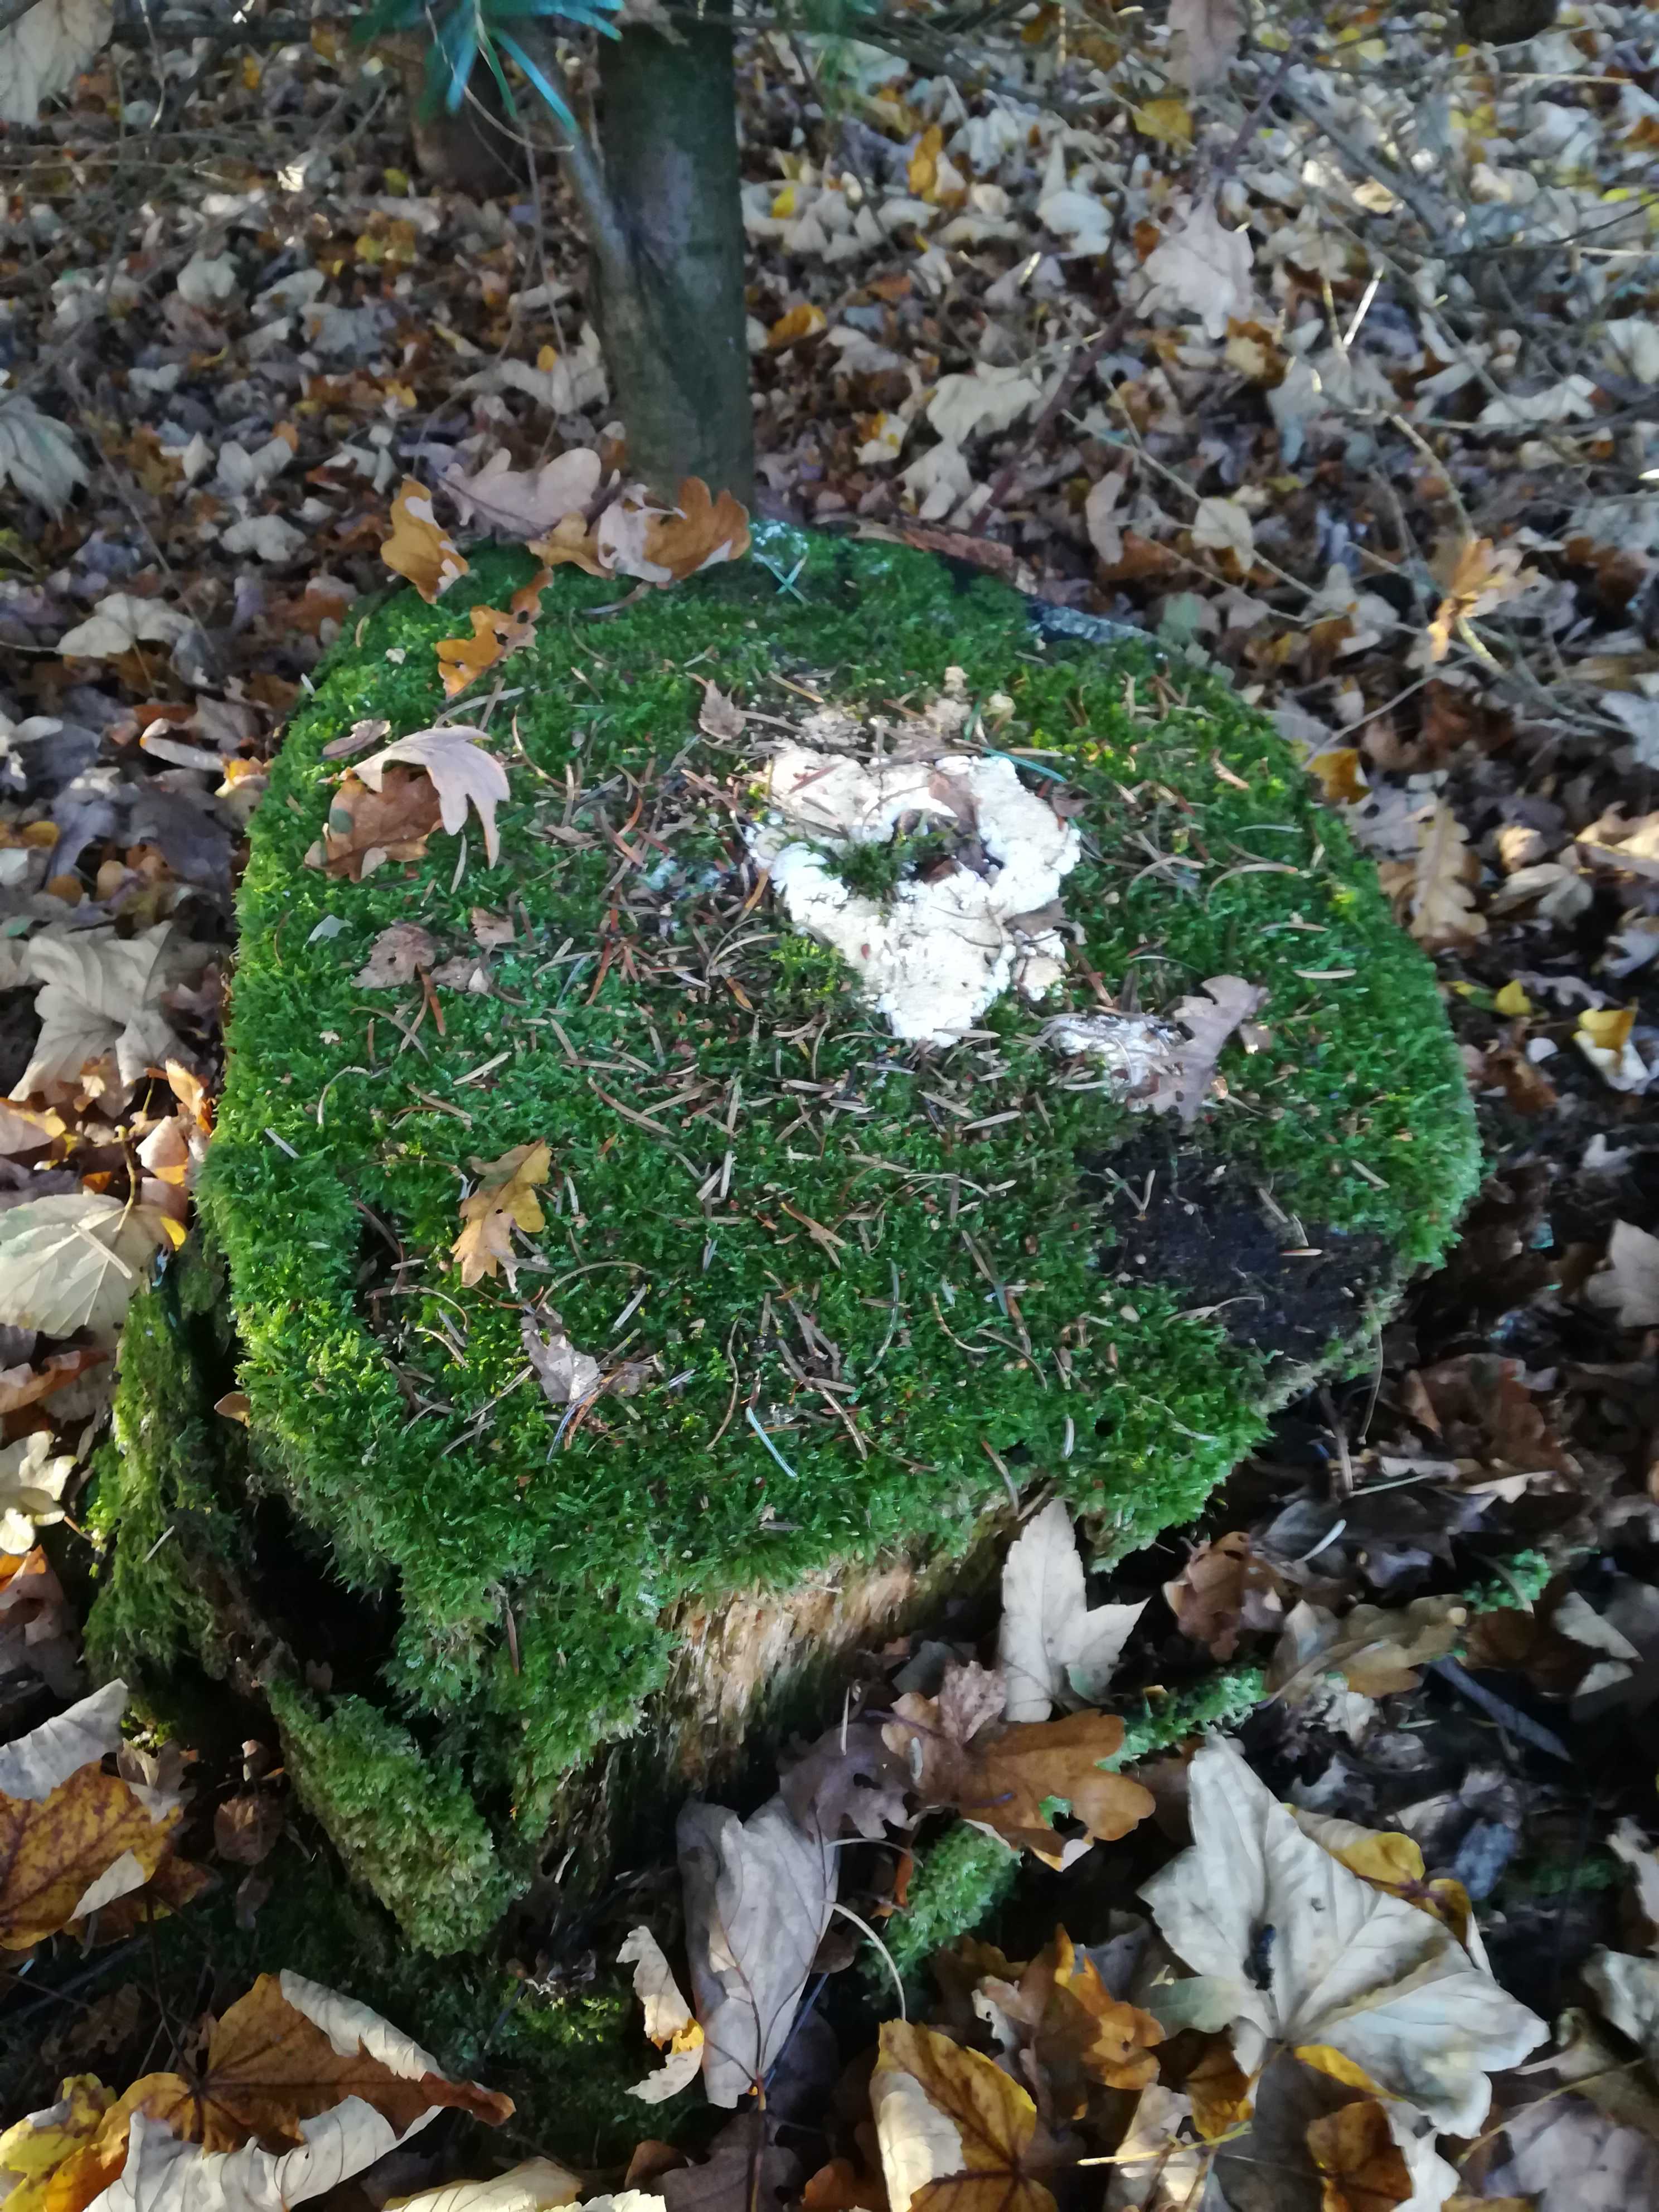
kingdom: Fungi
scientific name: Fungi
